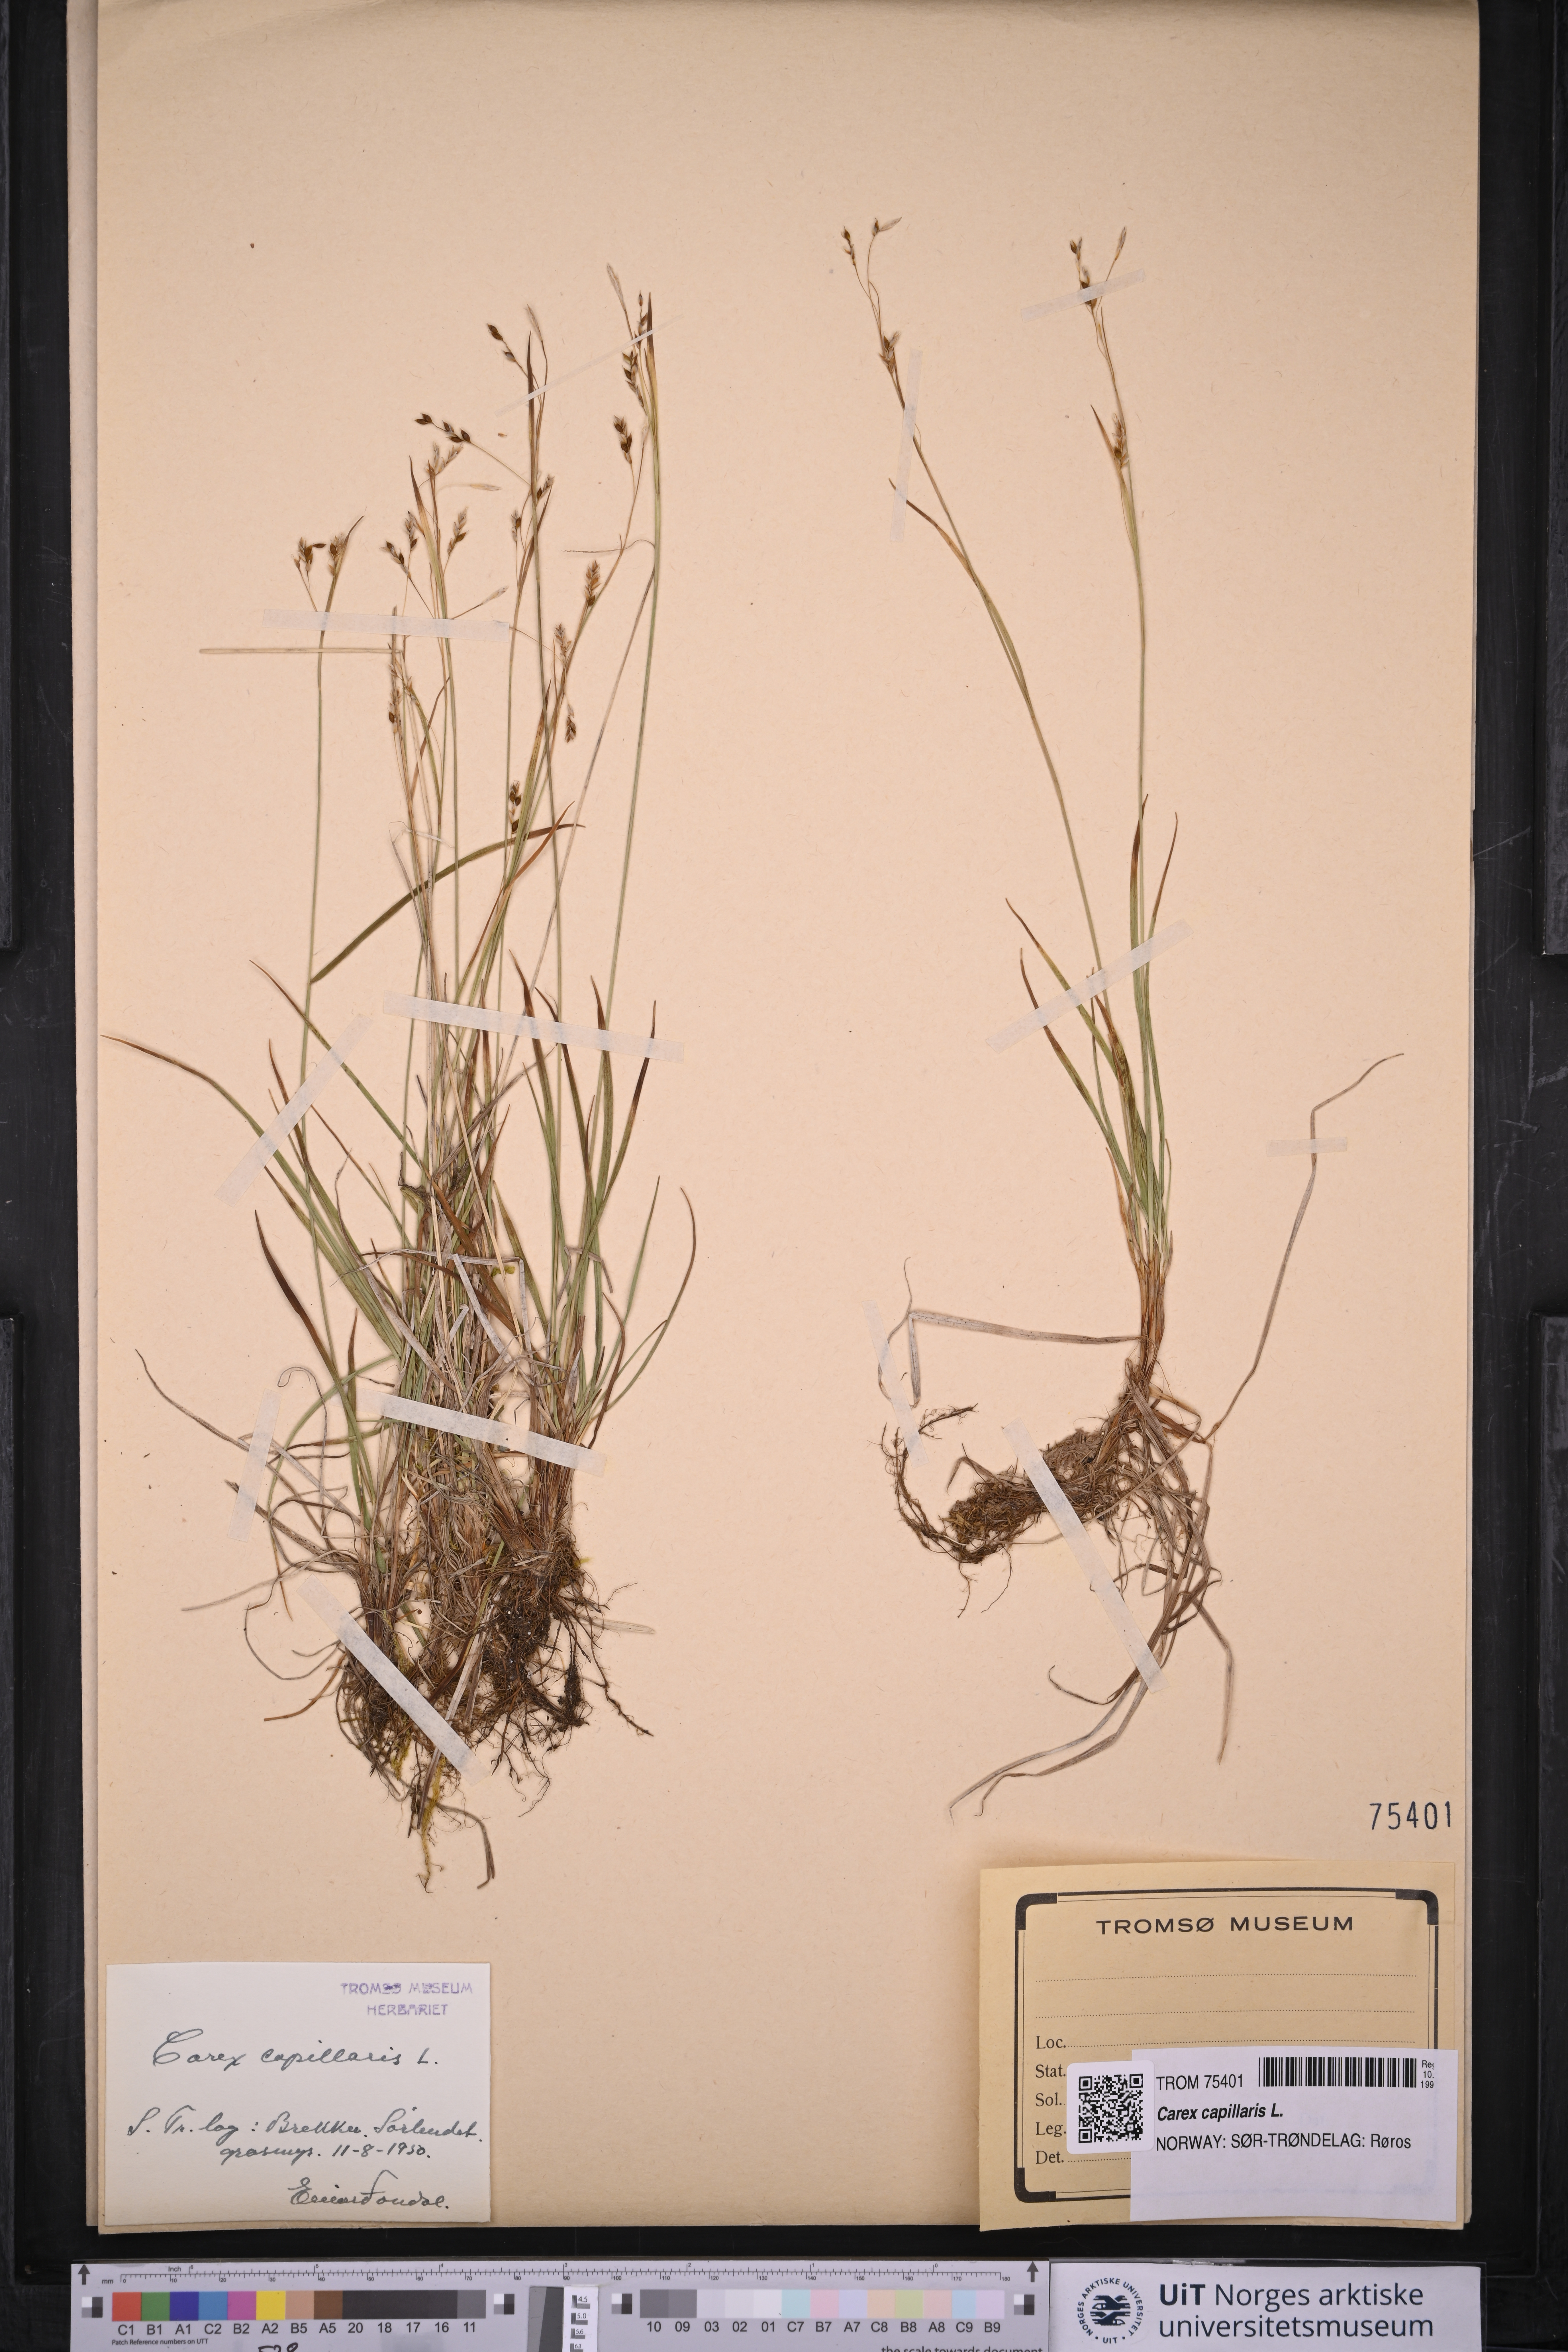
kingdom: Plantae
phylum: Tracheophyta
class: Liliopsida
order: Poales
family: Cyperaceae
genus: Carex
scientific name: Carex capillaris
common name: Hair sedge
